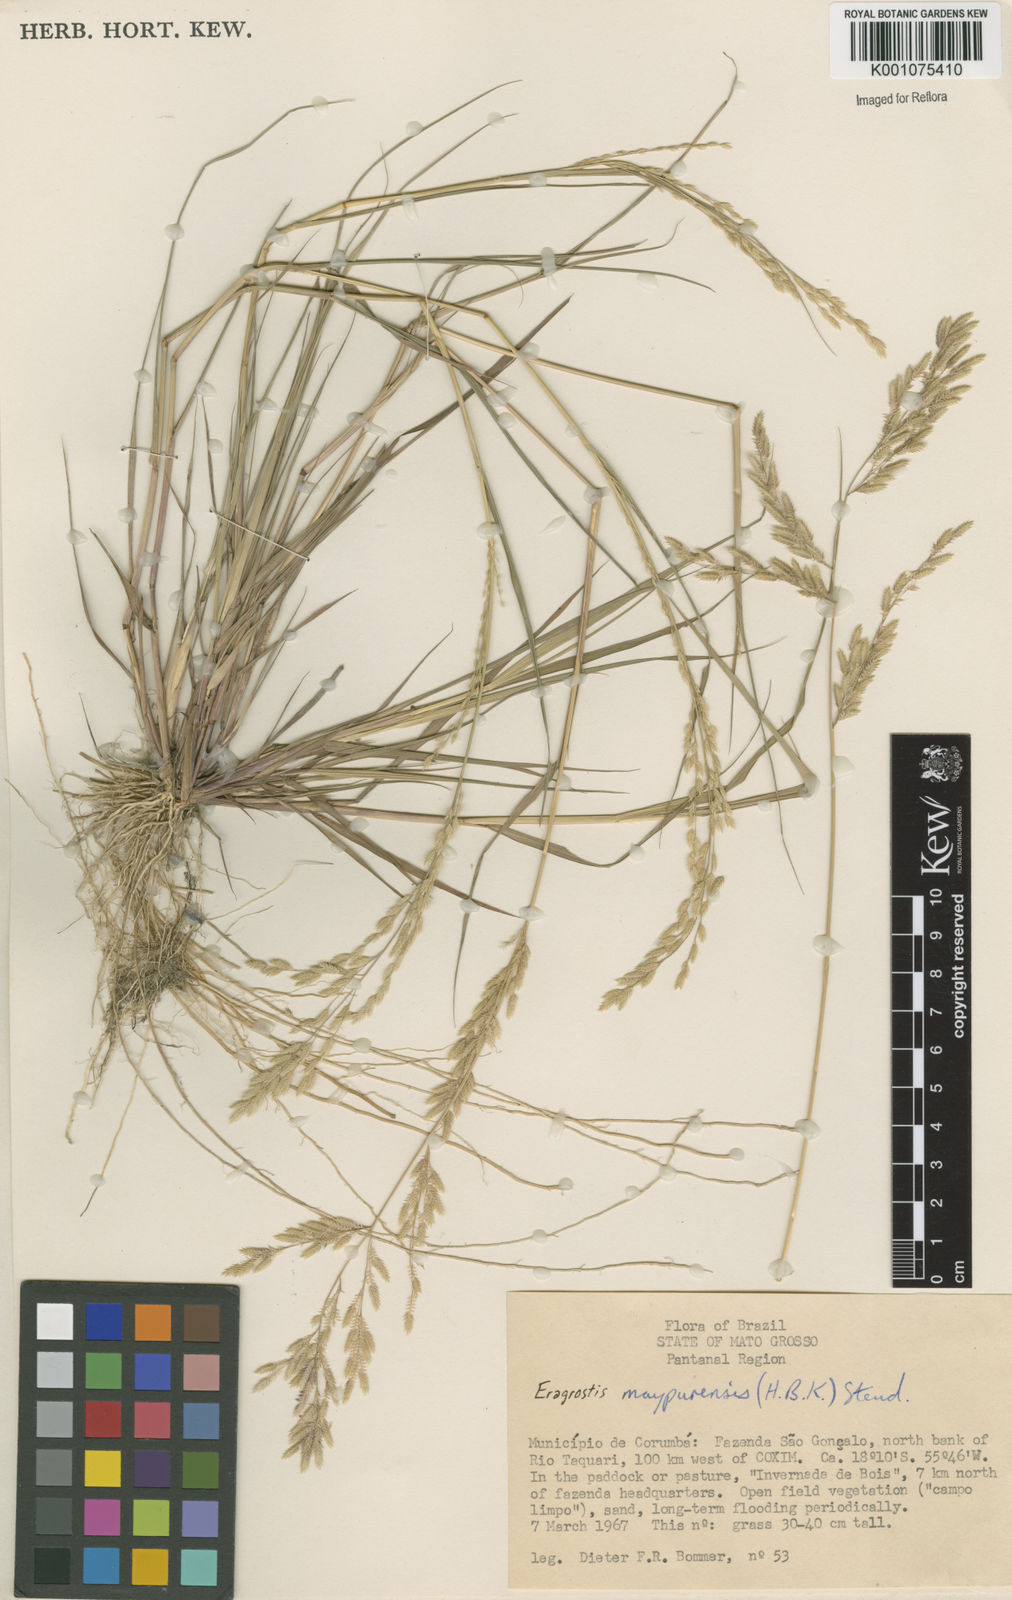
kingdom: Plantae
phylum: Tracheophyta
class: Liliopsida
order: Poales
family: Poaceae
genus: Eragrostis
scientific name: Eragrostis rufescens
